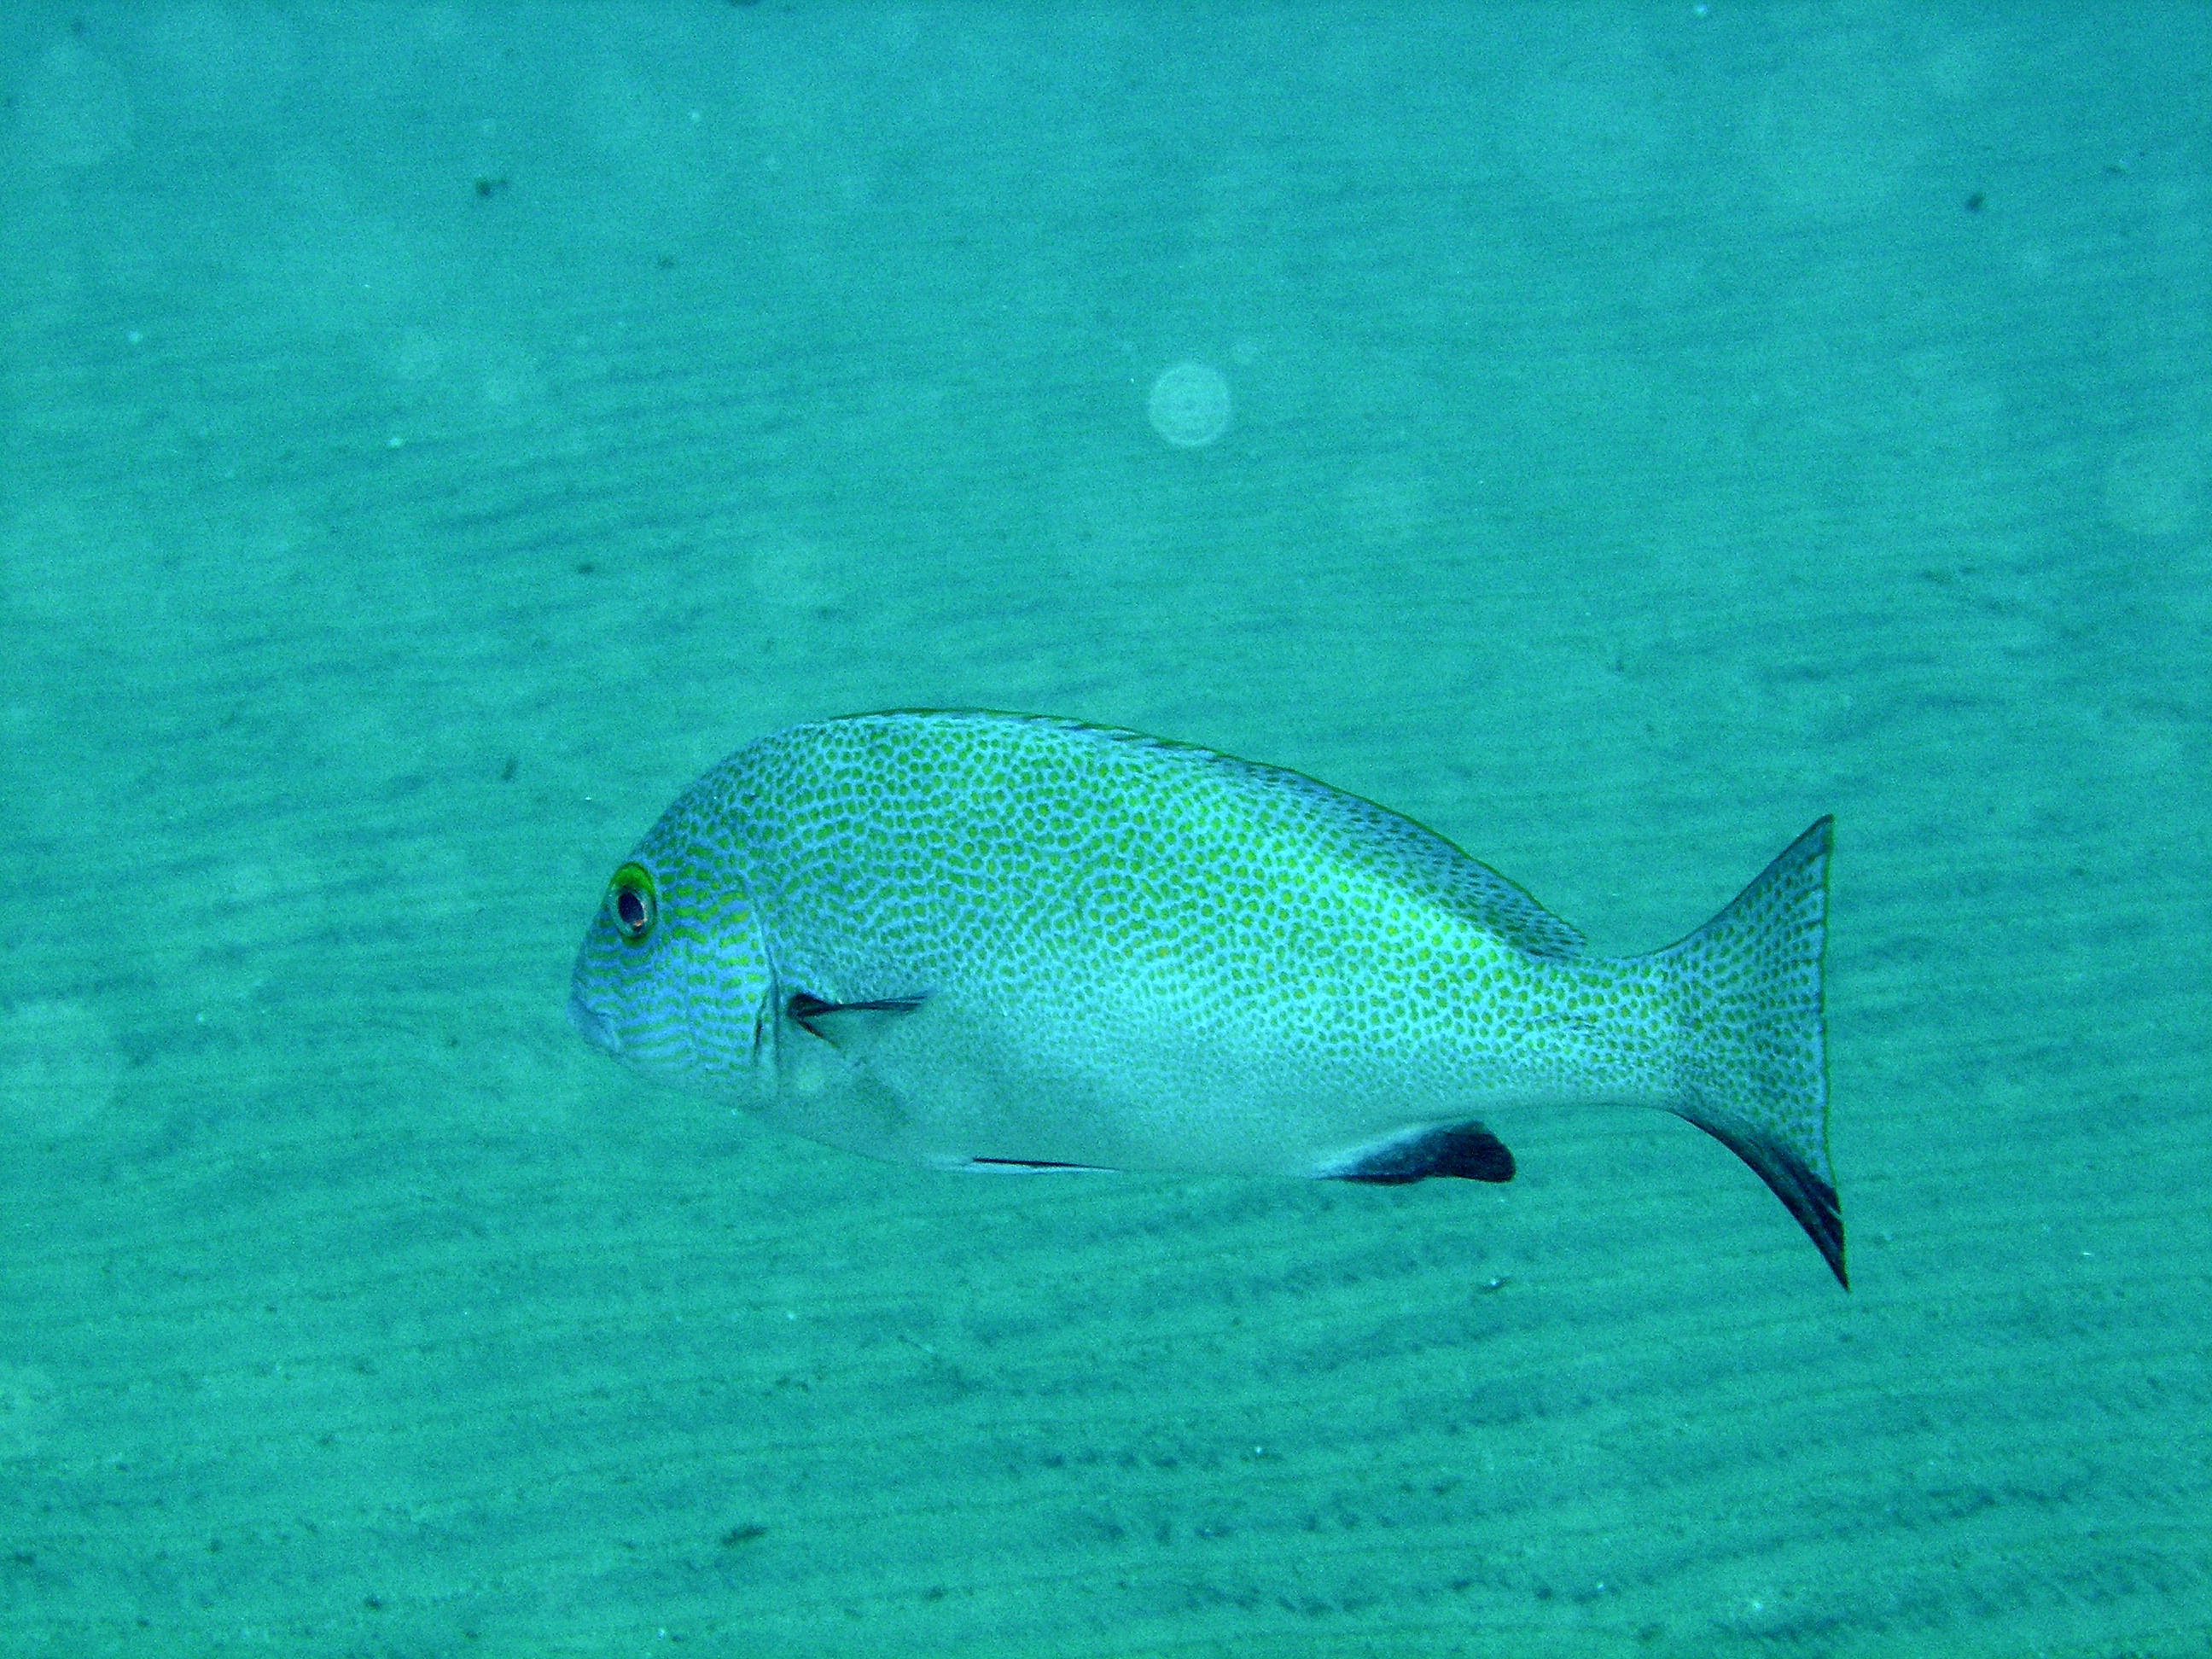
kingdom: Animalia
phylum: Chordata
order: Perciformes
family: Haemulidae
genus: Plectorhinchus
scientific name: Plectorhinchus flavomaculatus
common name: Netted sweetlips
